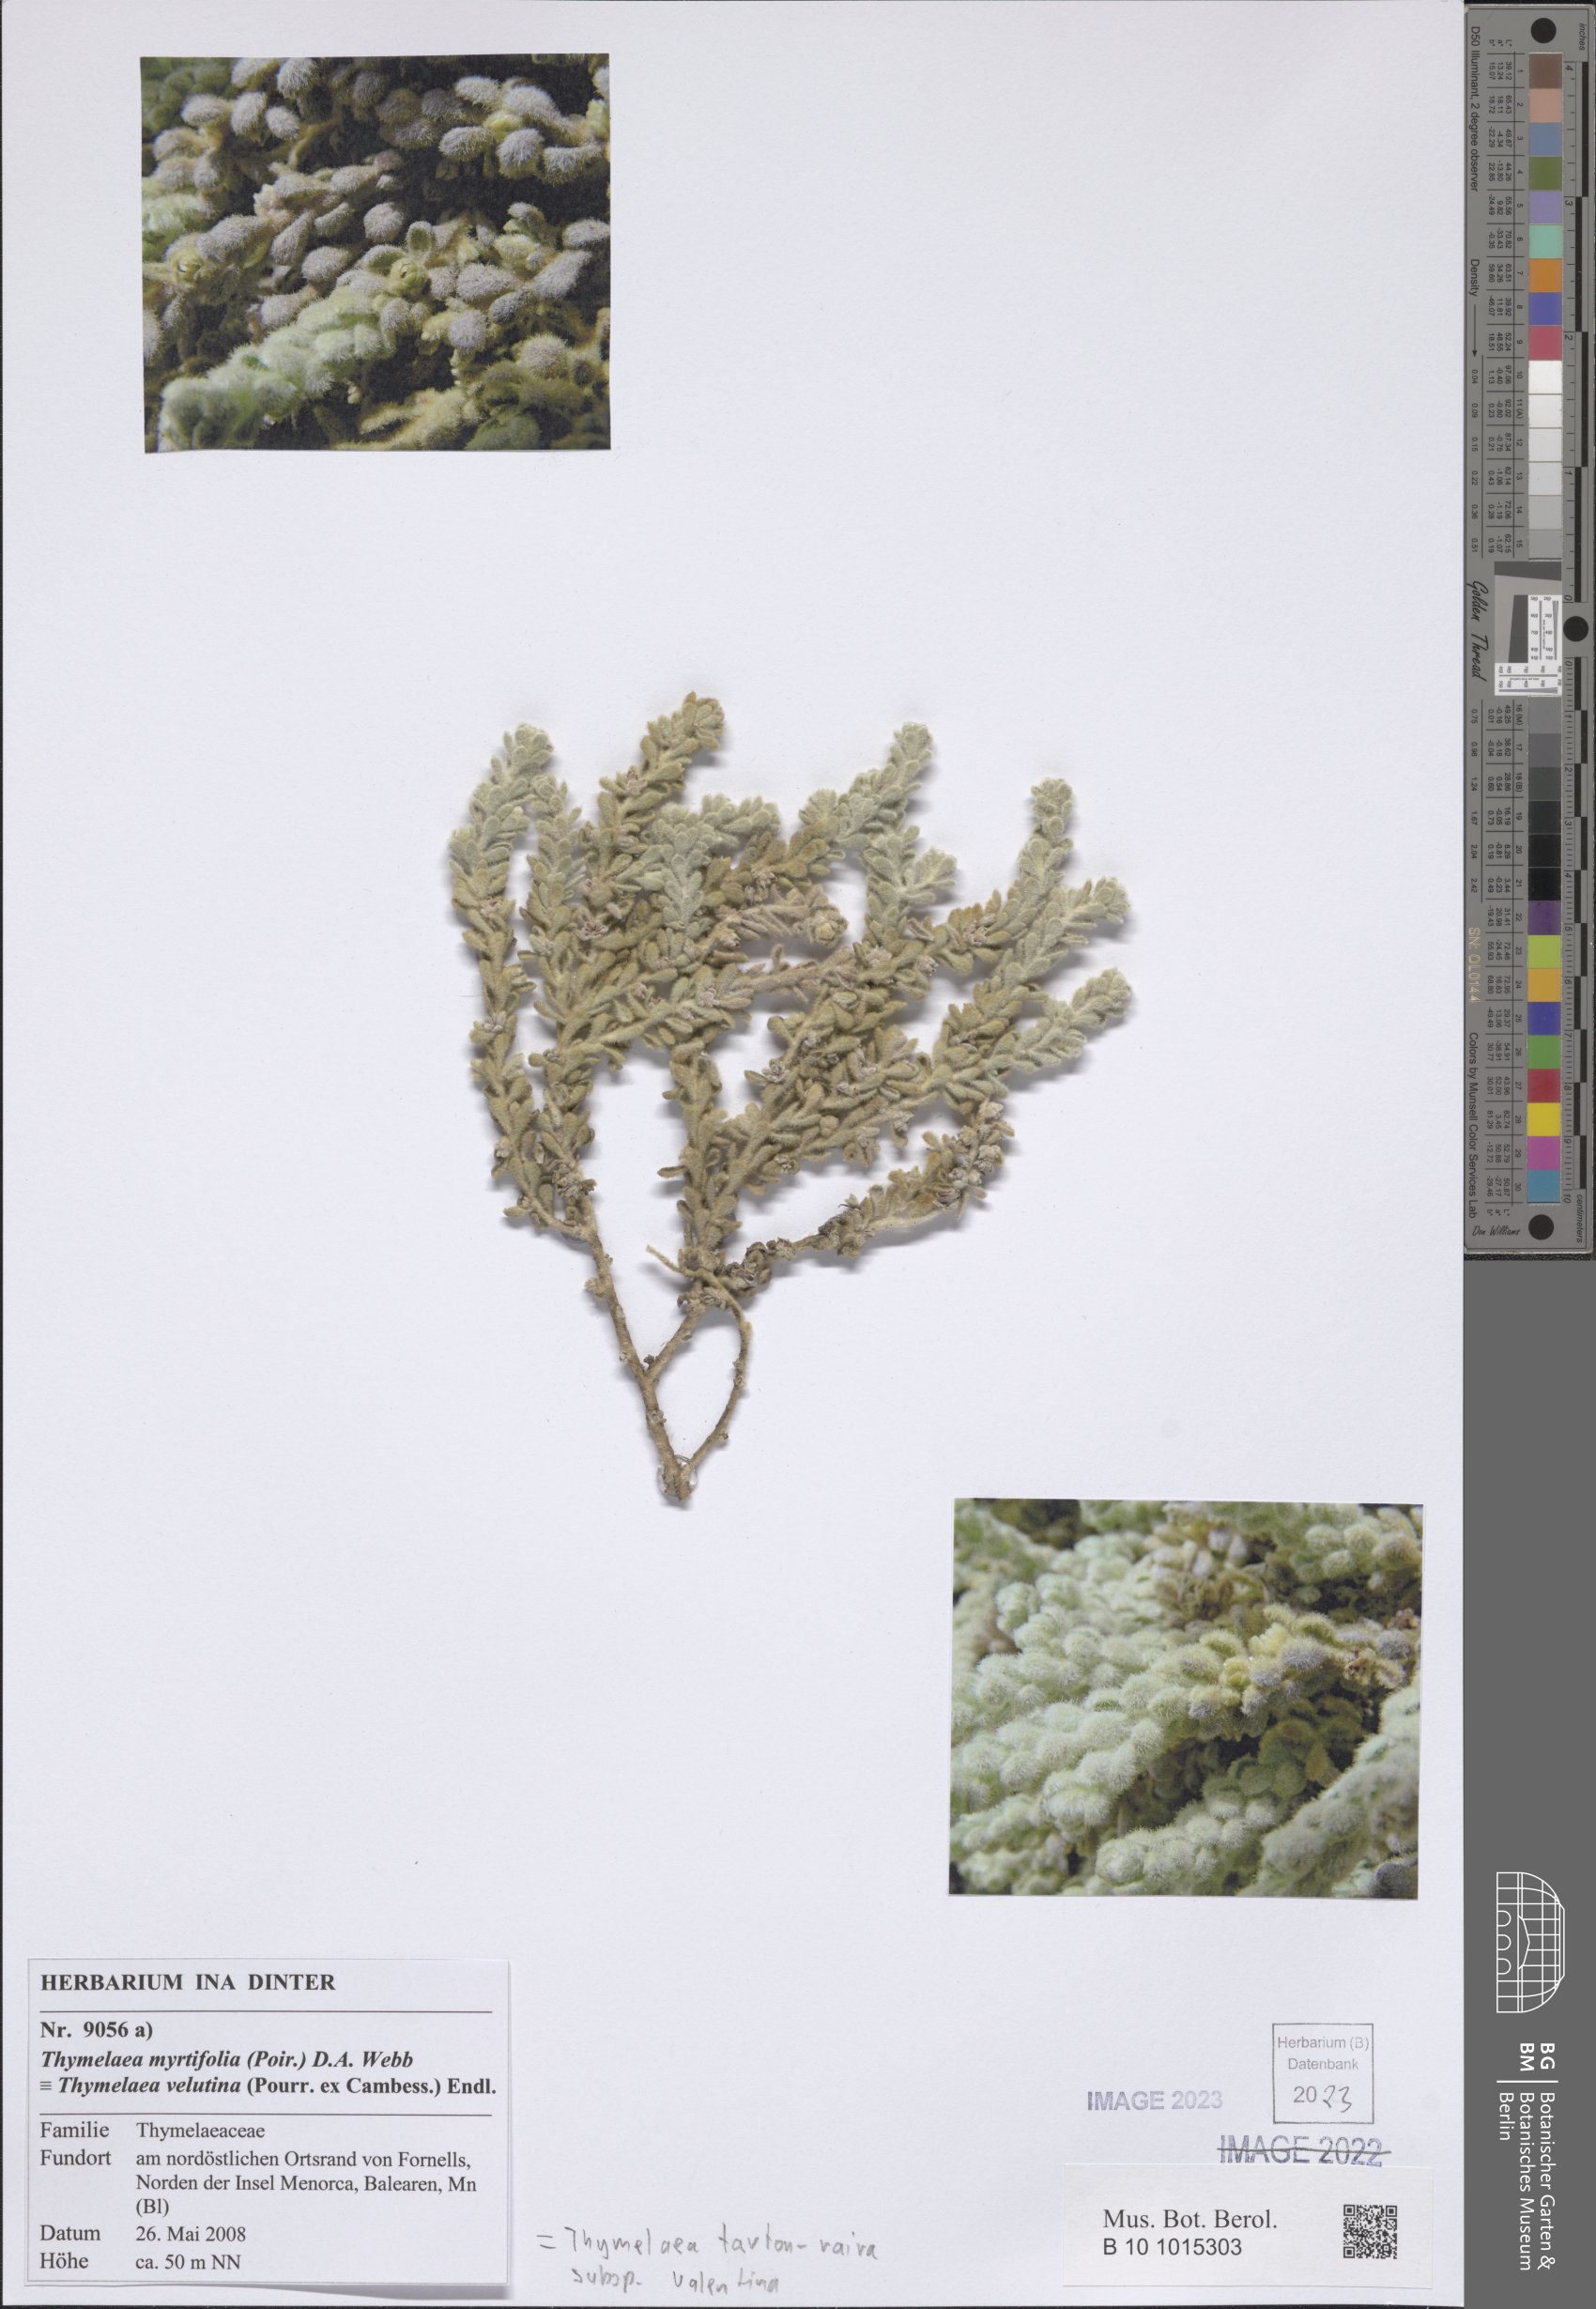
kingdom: Plantae
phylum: Tracheophyta
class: Magnoliopsida
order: Malvales
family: Thymelaeaceae
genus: Thymelaea
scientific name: Thymelaea tartonraira
